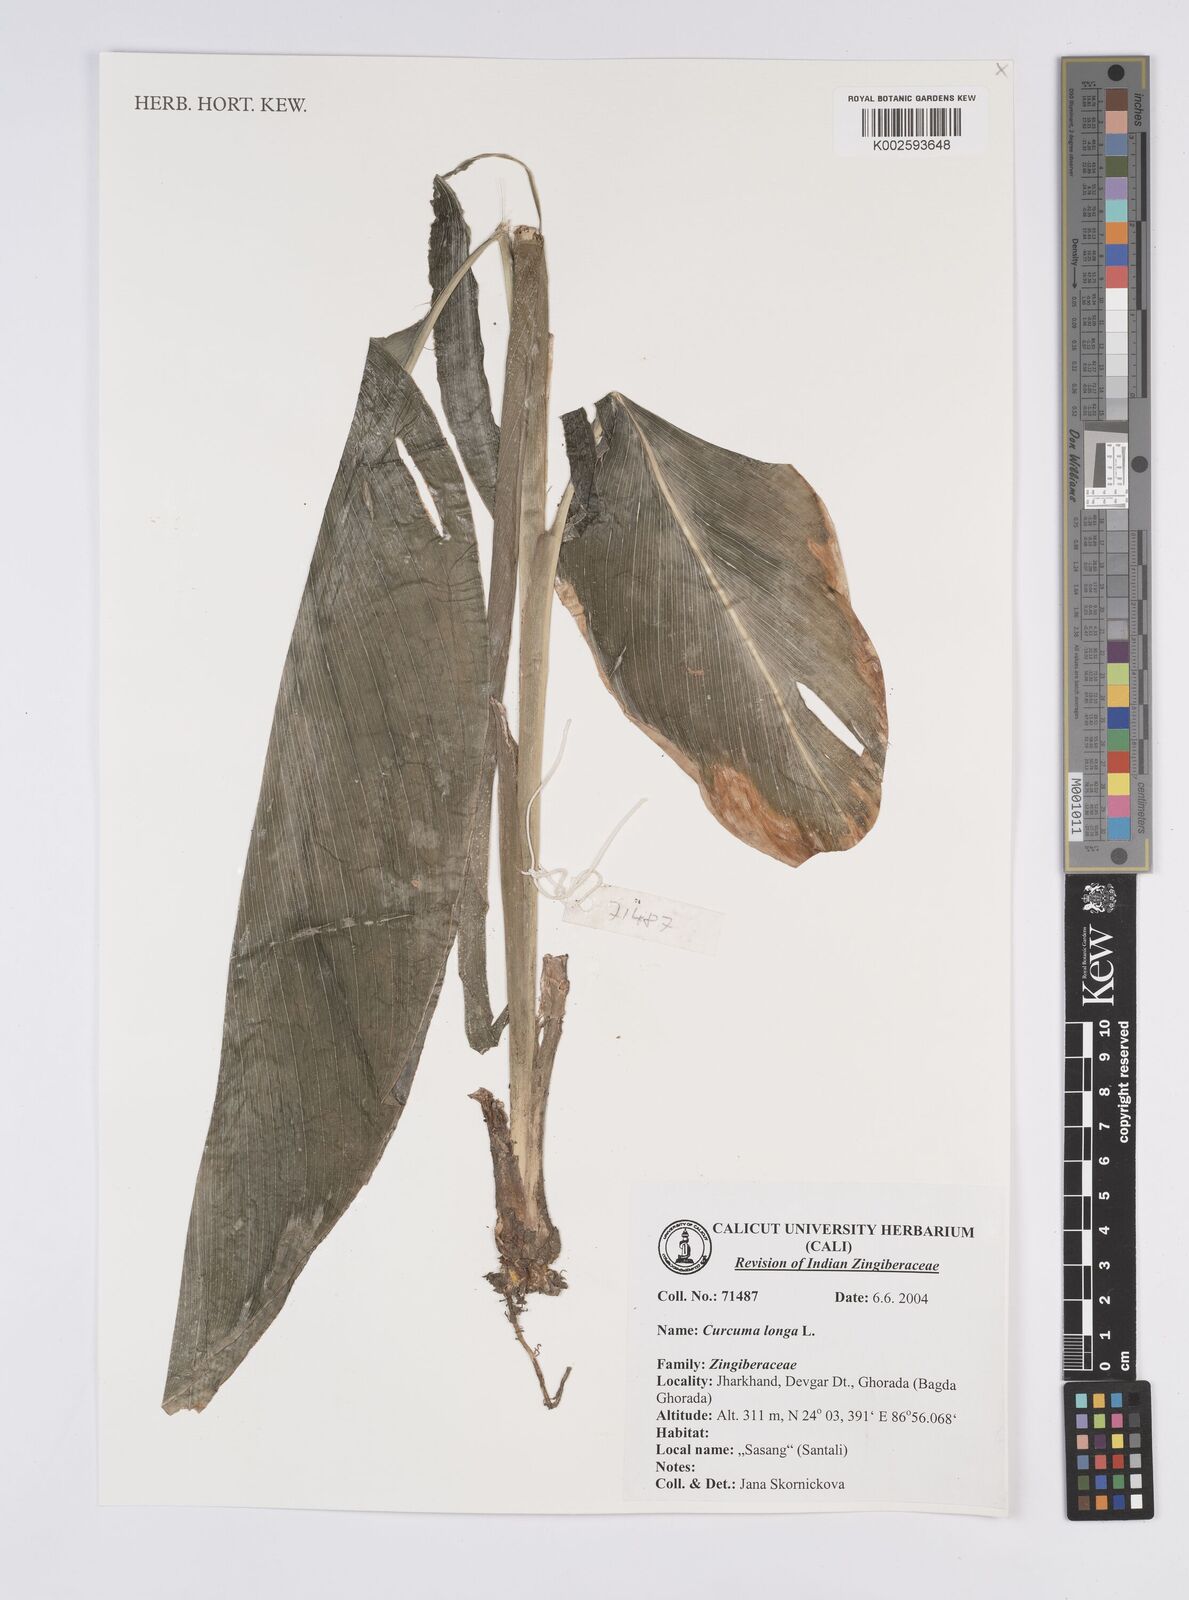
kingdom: Plantae
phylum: Tracheophyta
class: Liliopsida
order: Zingiberales
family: Zingiberaceae
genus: Curcuma
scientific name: Curcuma longa
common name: Turmeric
